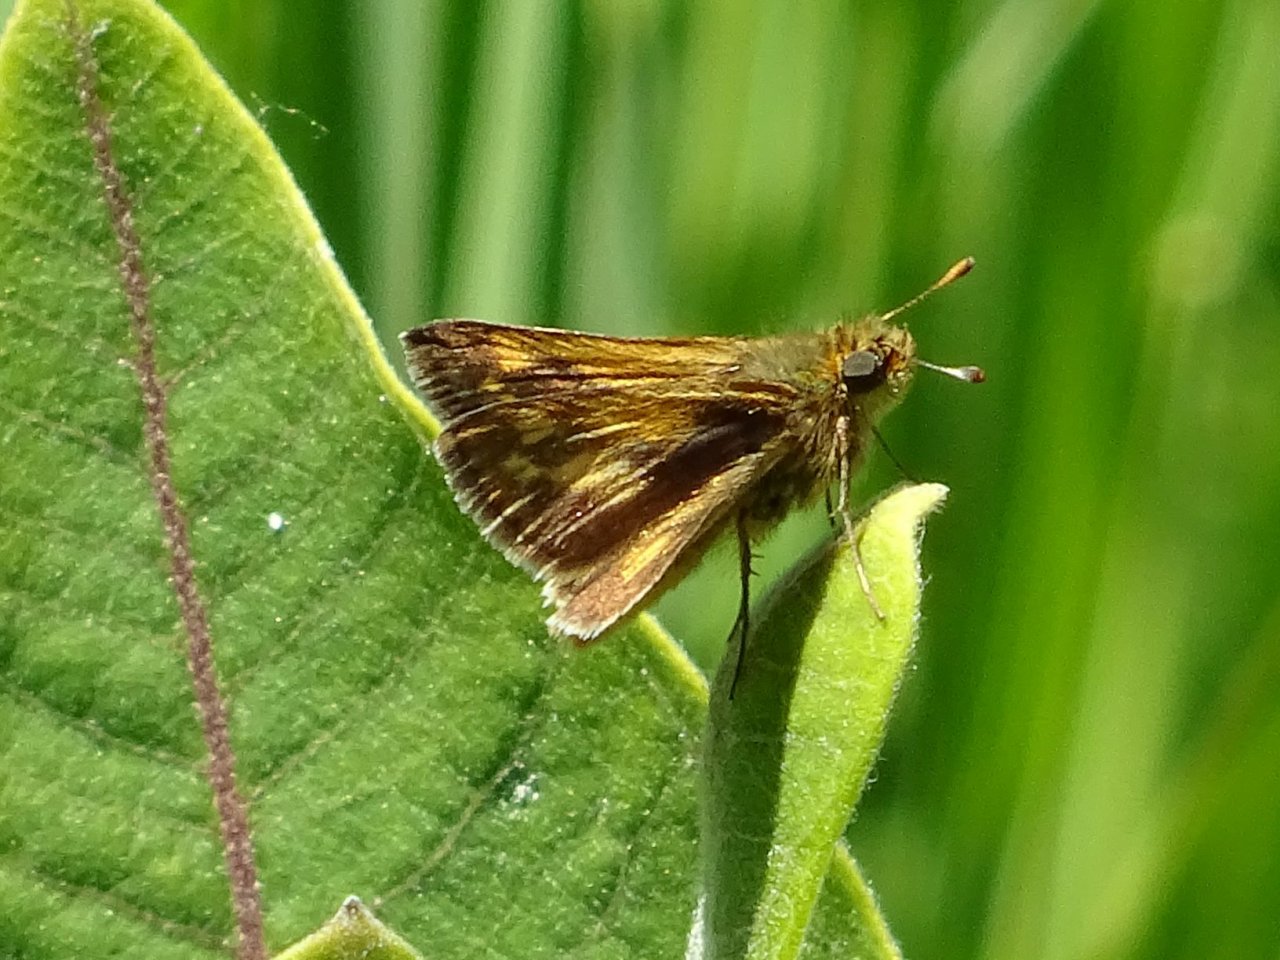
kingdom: Animalia
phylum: Arthropoda
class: Insecta
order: Lepidoptera
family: Hesperiidae
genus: Polites
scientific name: Polites coras
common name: Peck's Skipper
